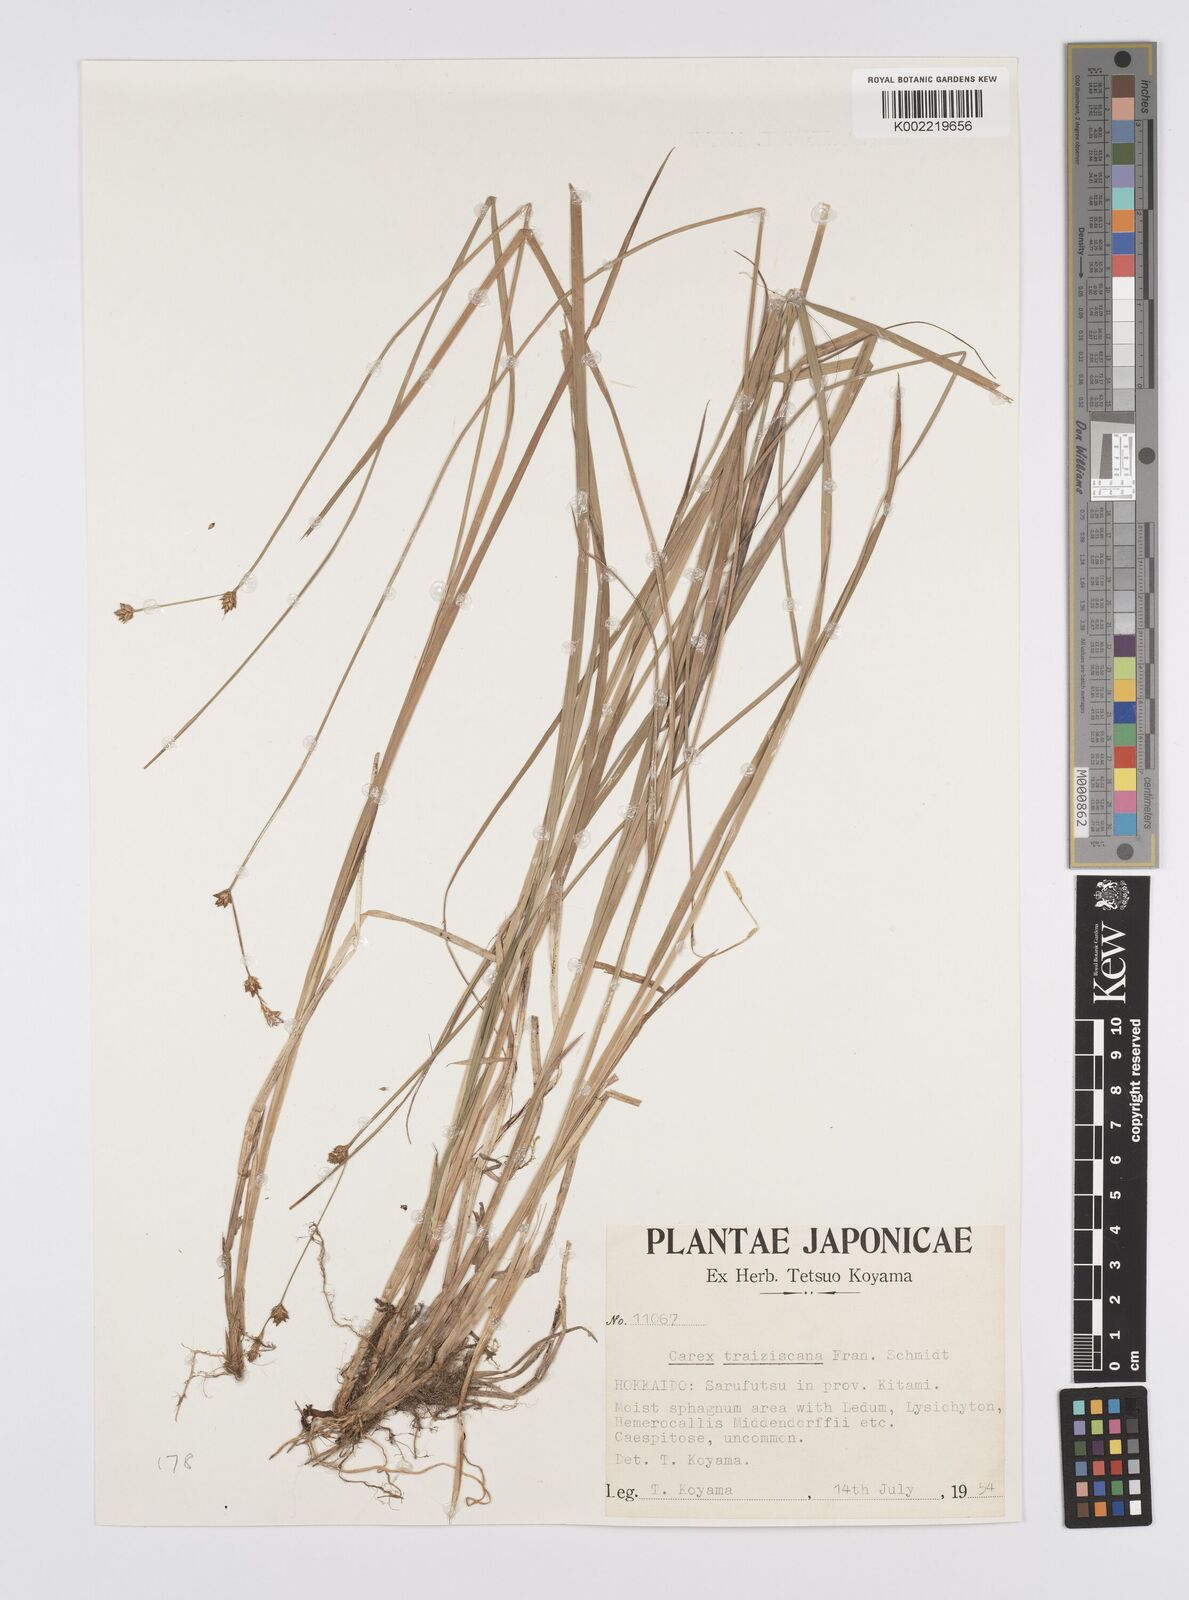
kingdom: Plantae
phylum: Tracheophyta
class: Liliopsida
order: Poales
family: Cyperaceae
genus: Carex
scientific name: Carex traiziscana
